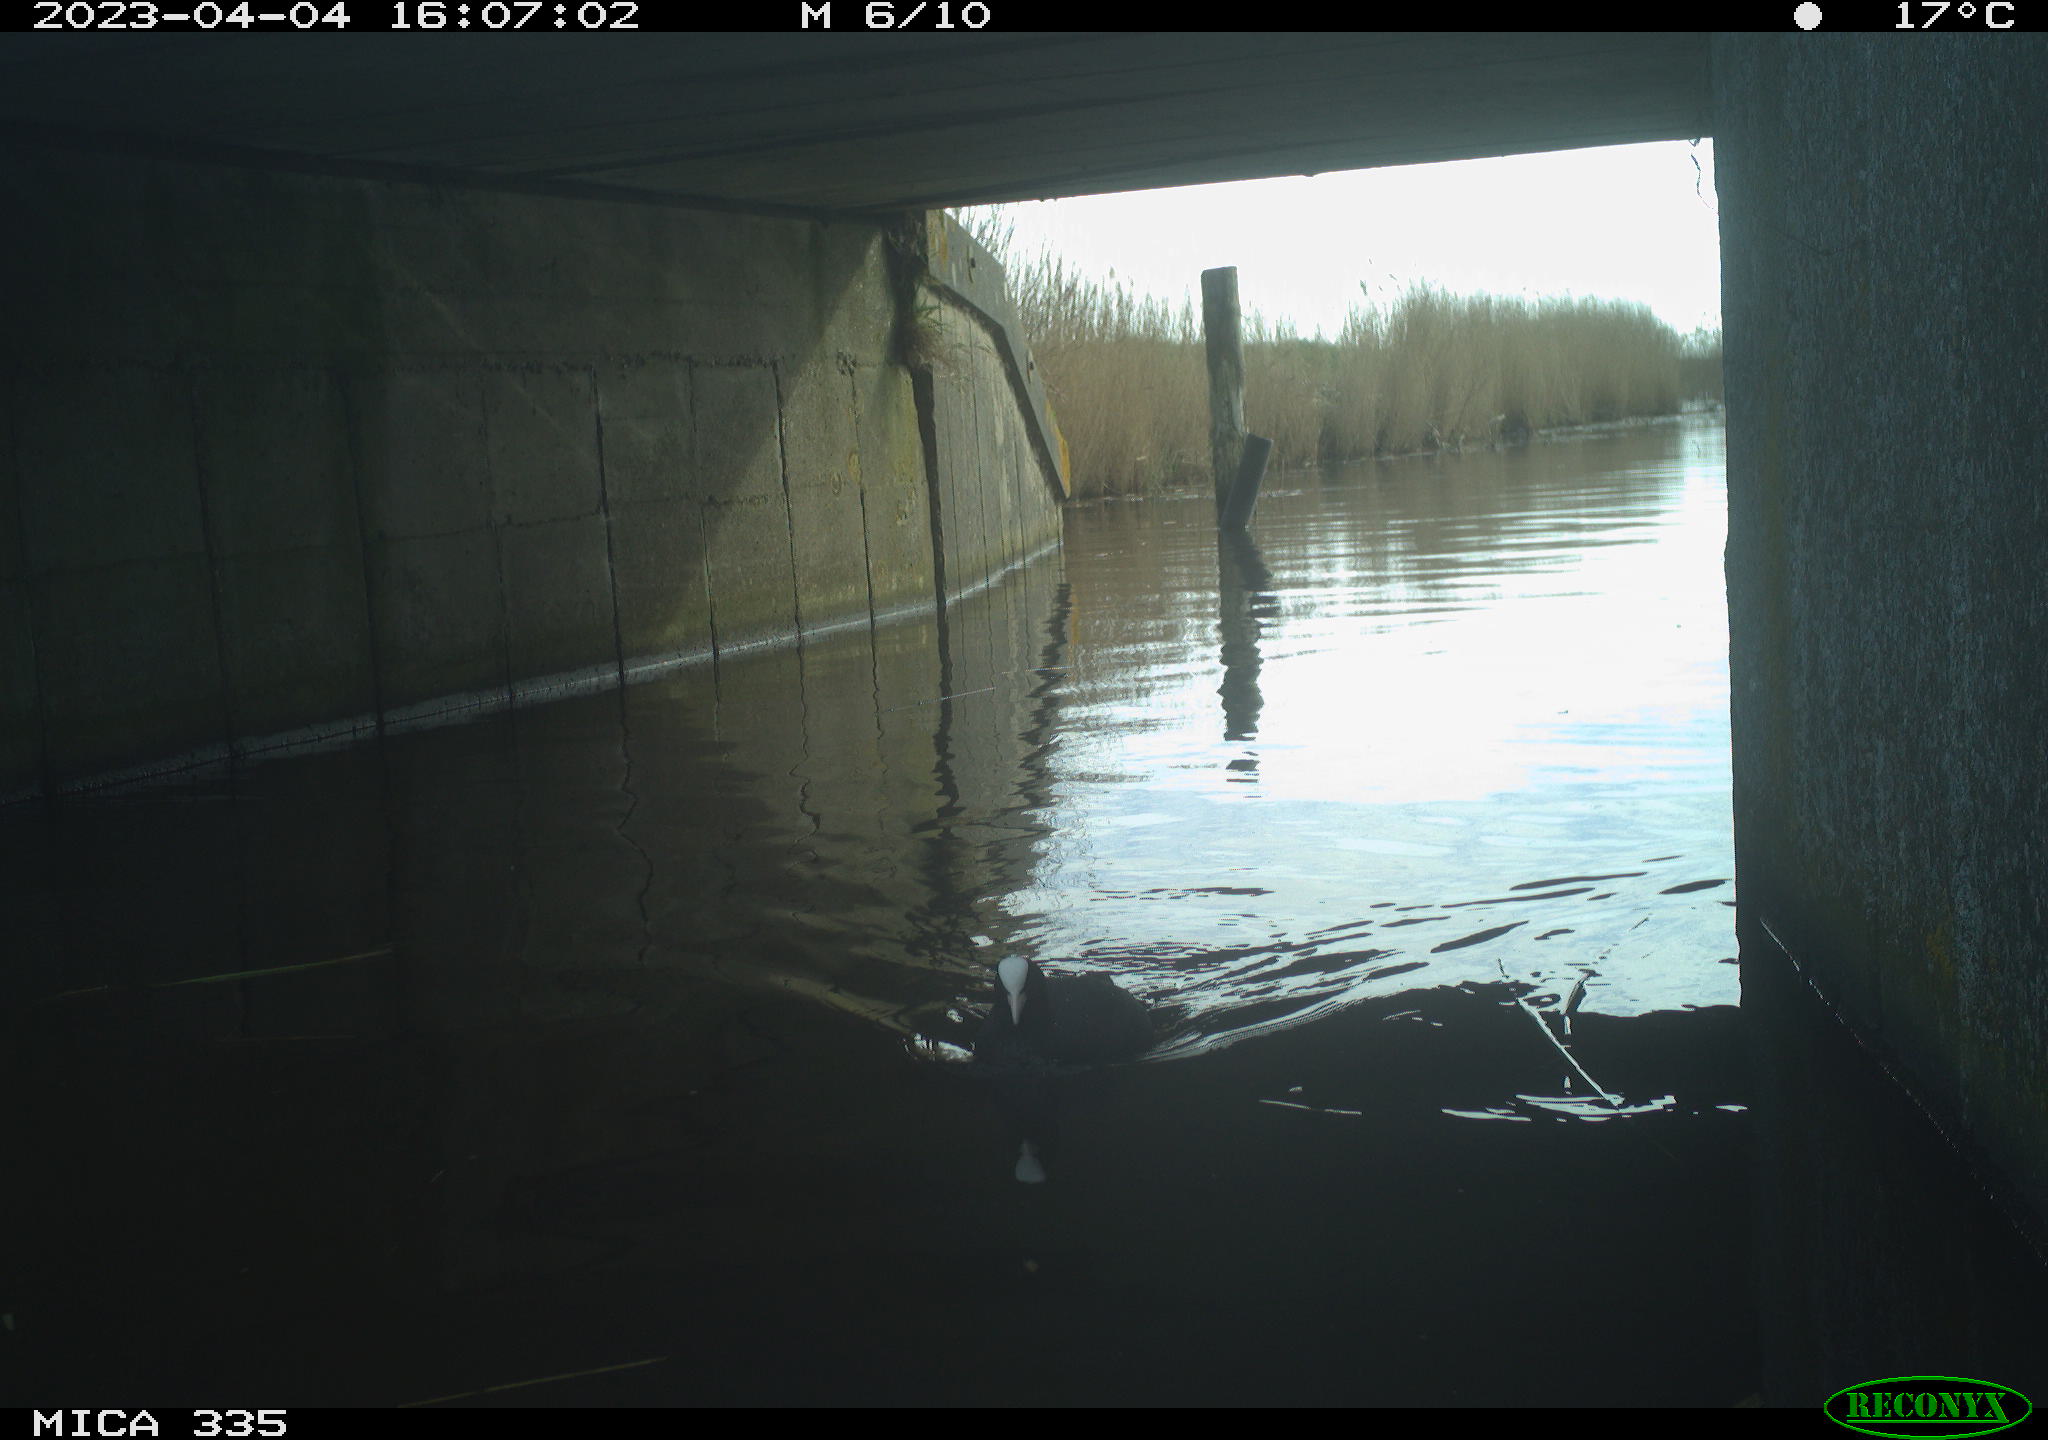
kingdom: Animalia
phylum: Chordata
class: Aves
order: Anseriformes
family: Anatidae
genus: Anas
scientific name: Anas
